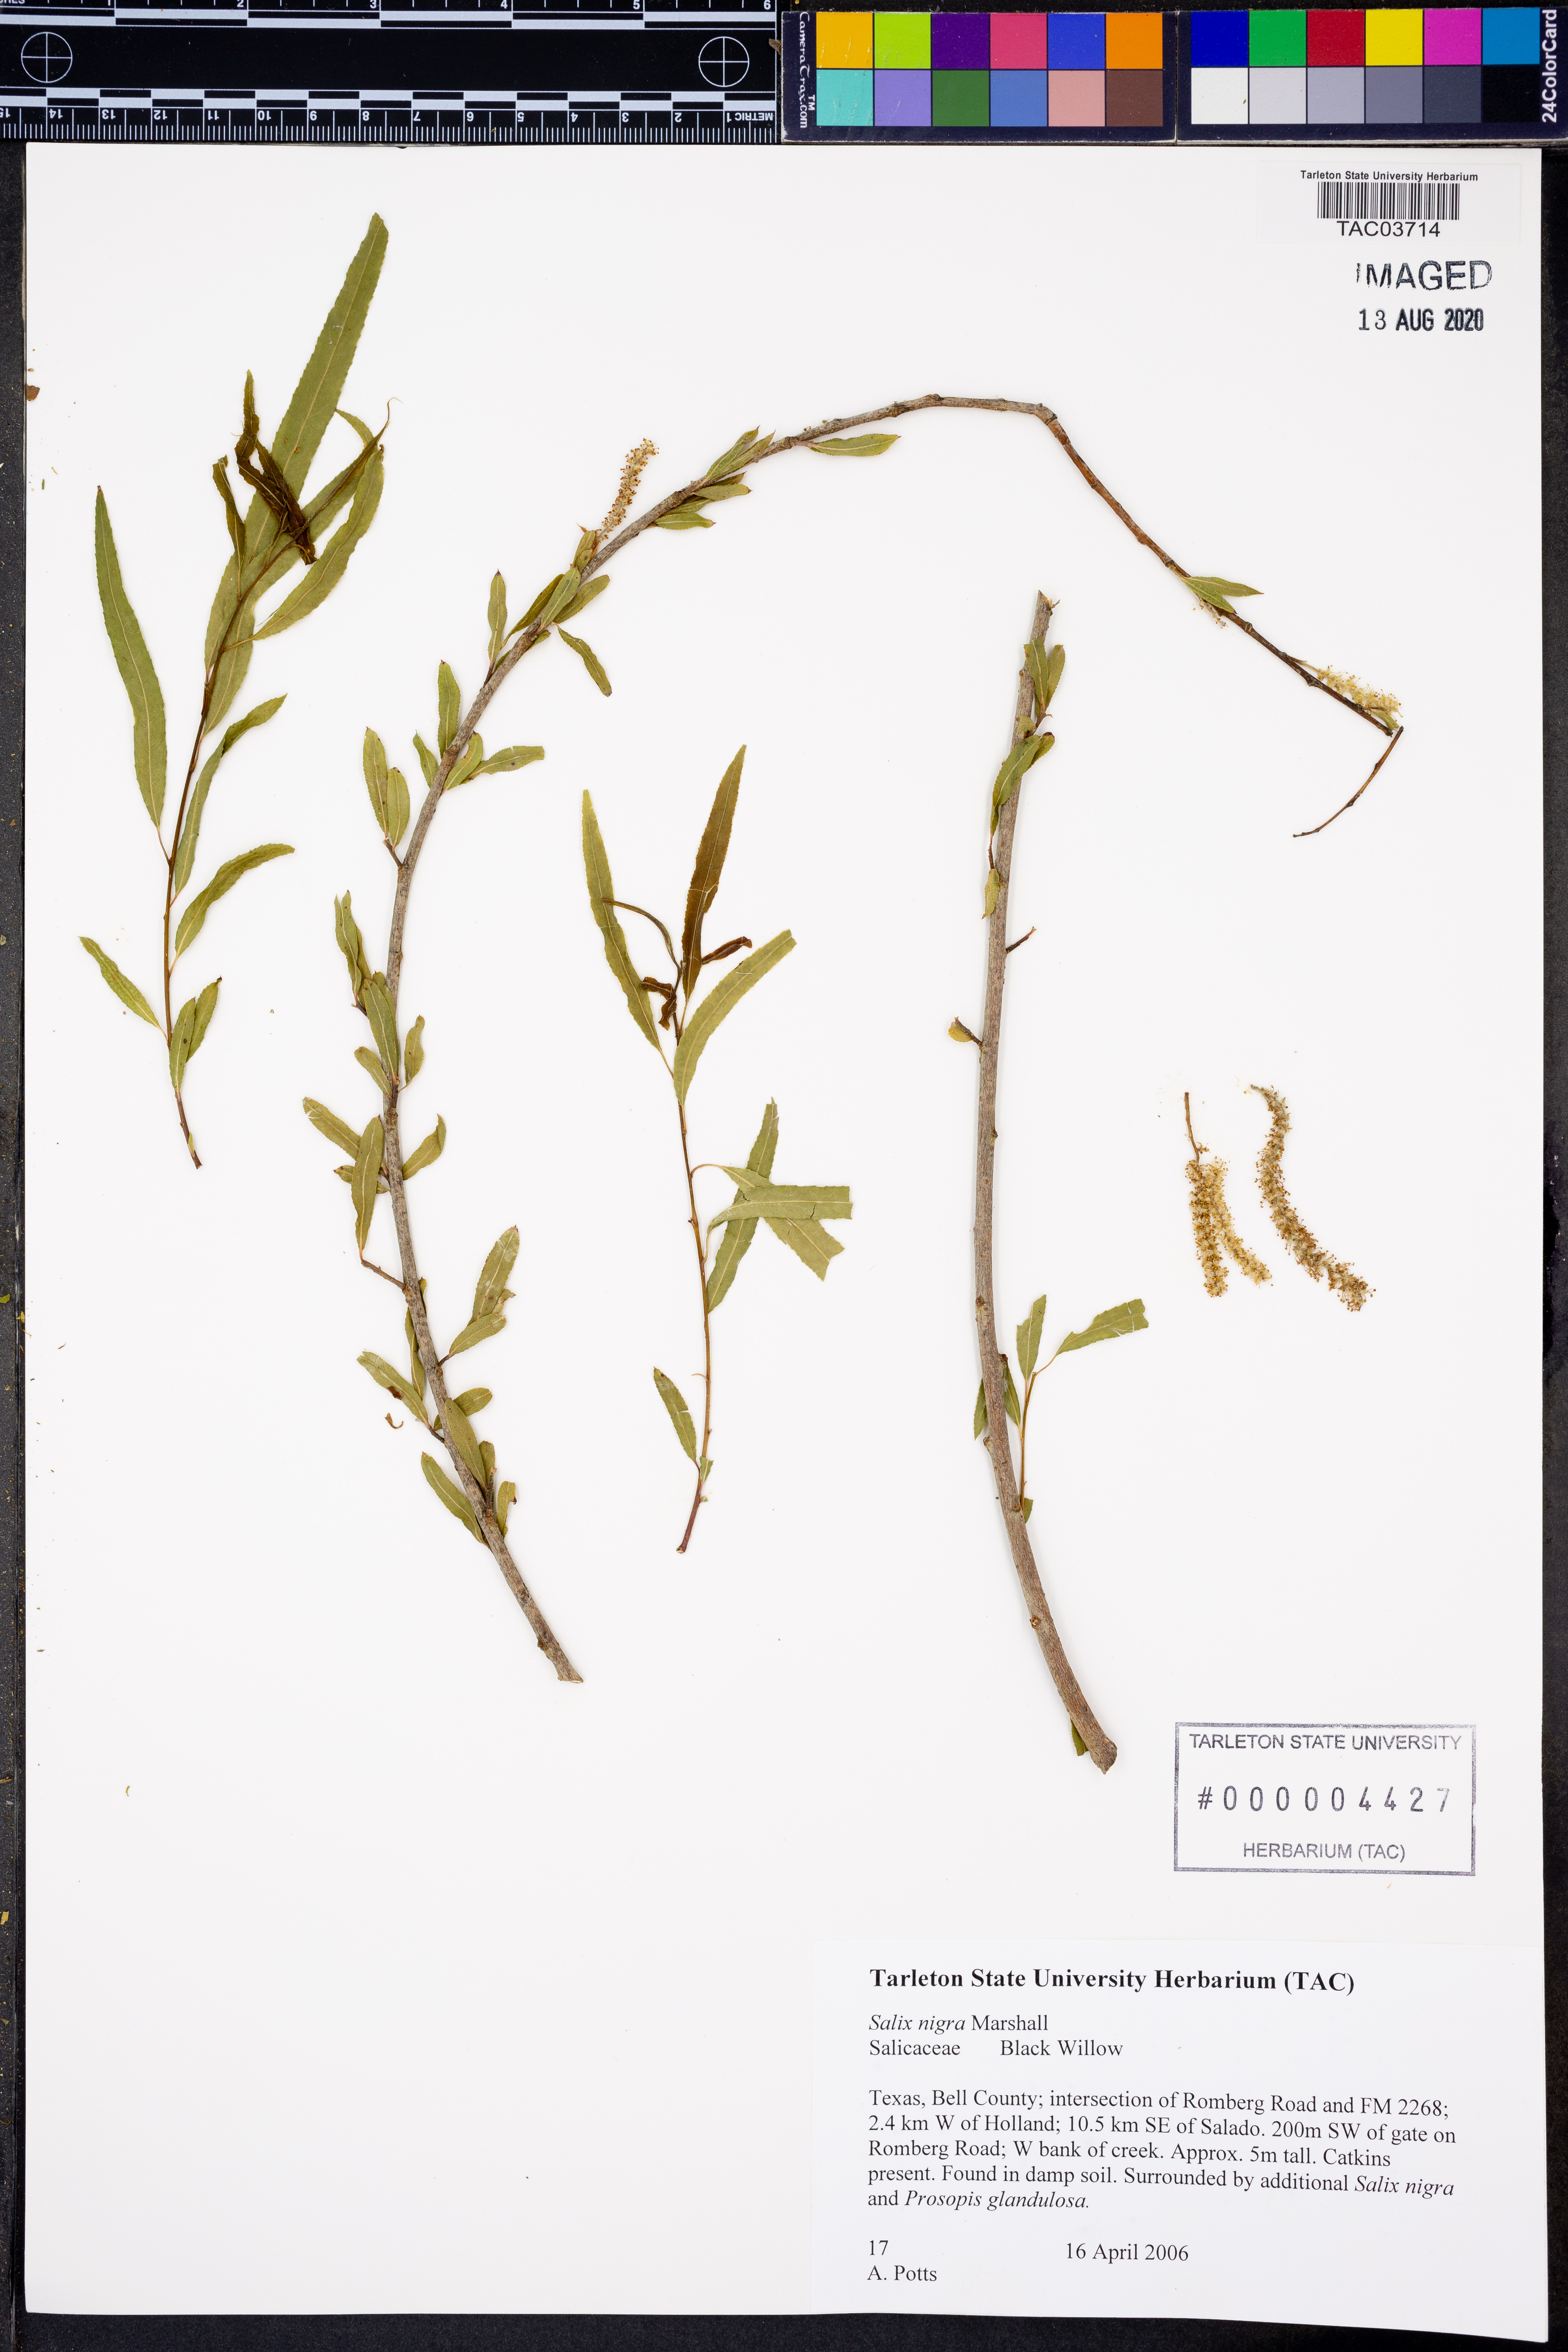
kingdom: Plantae
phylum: Tracheophyta
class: Magnoliopsida
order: Malpighiales
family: Salicaceae
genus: Salix
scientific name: Salix nigra
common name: Black willow
